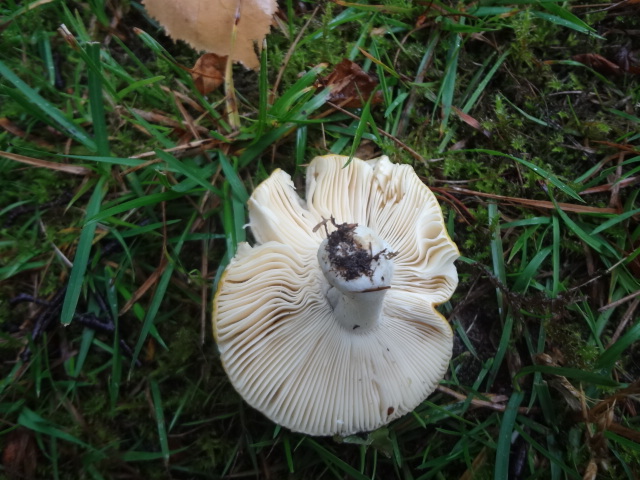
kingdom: Fungi
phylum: Basidiomycota
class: Agaricomycetes
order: Russulales
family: Russulaceae
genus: Russula
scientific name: Russula claroflava
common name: birke-skørhat
